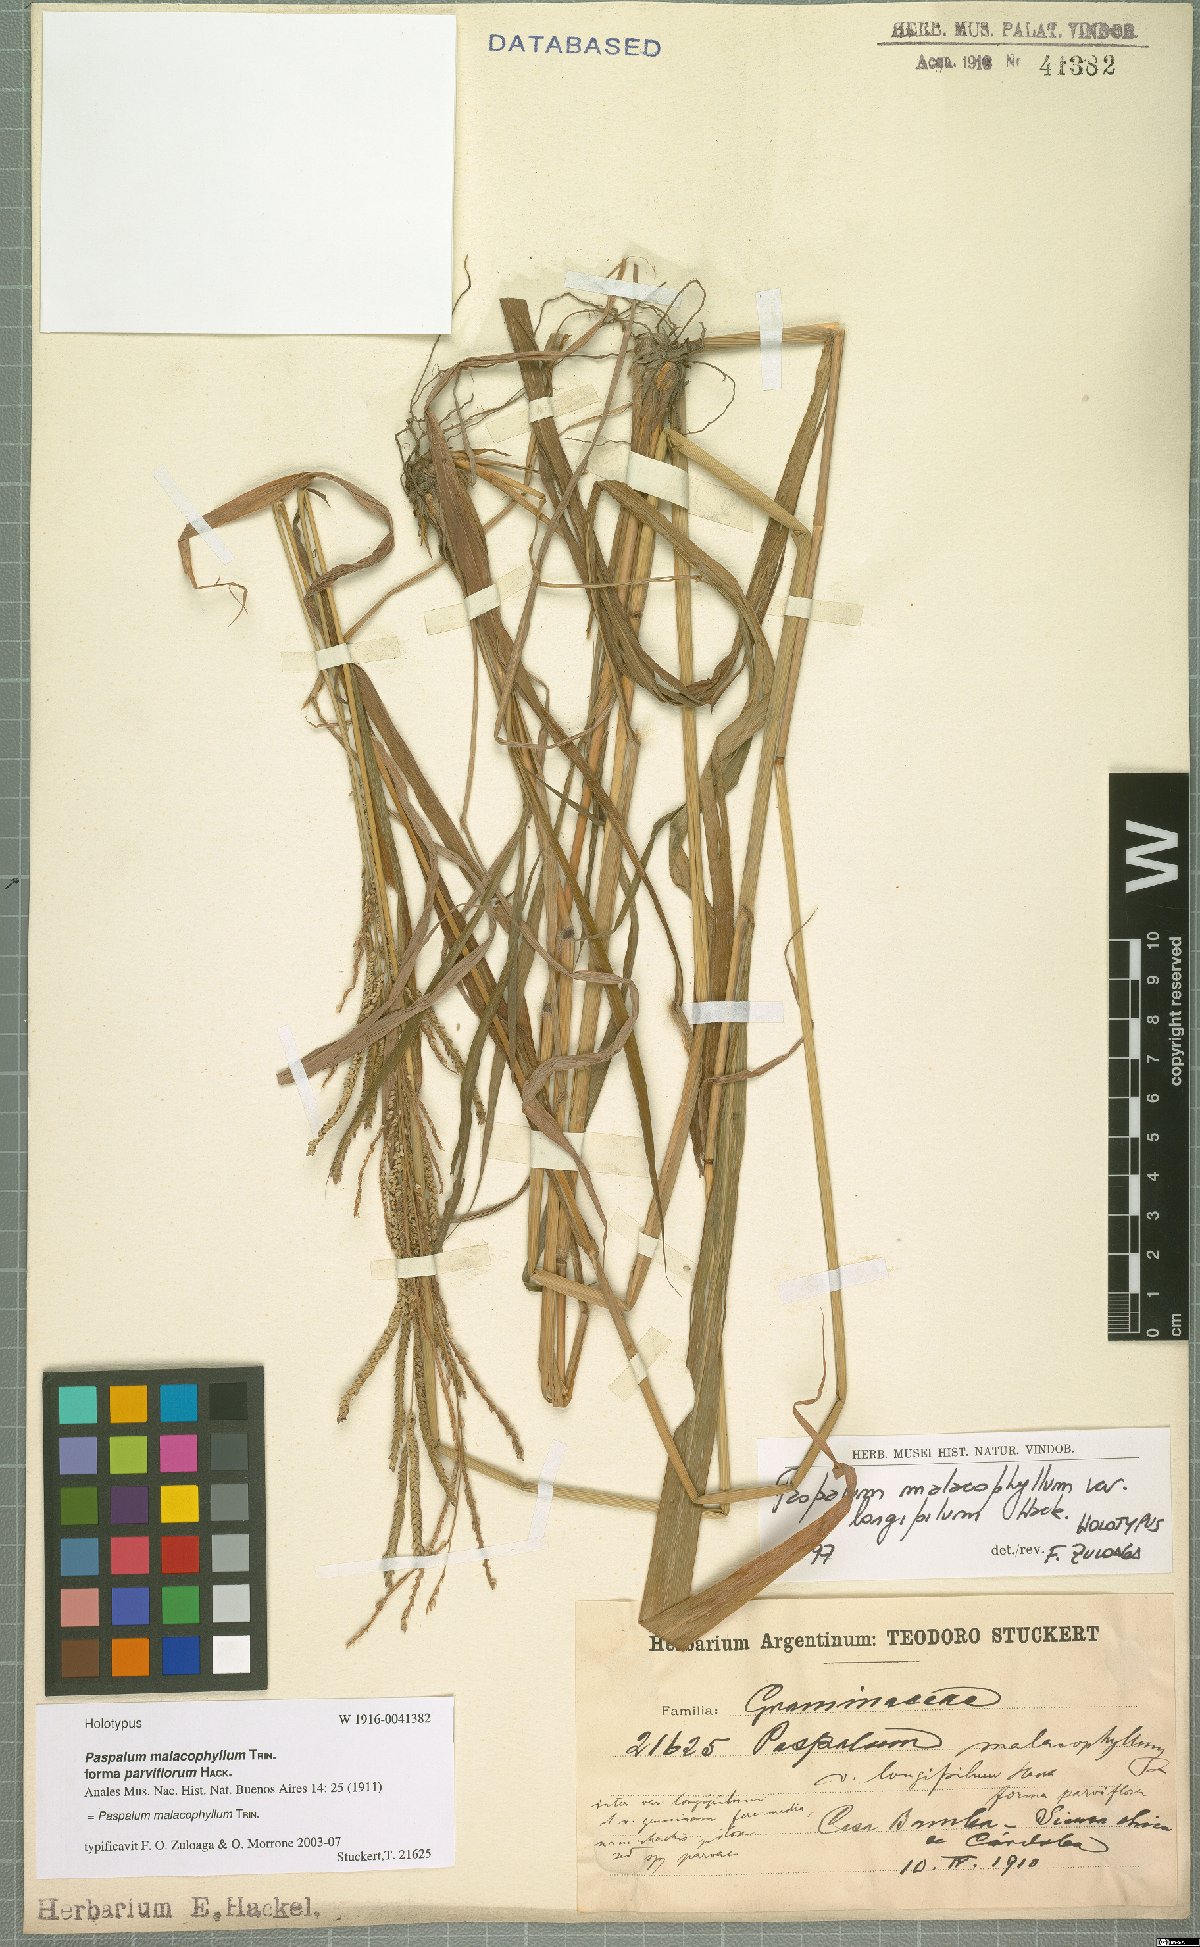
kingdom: Plantae
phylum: Tracheophyta
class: Liliopsida
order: Poales
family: Poaceae
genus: Paspalum
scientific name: Paspalum malacophyllum
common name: Ribbed paspalum
